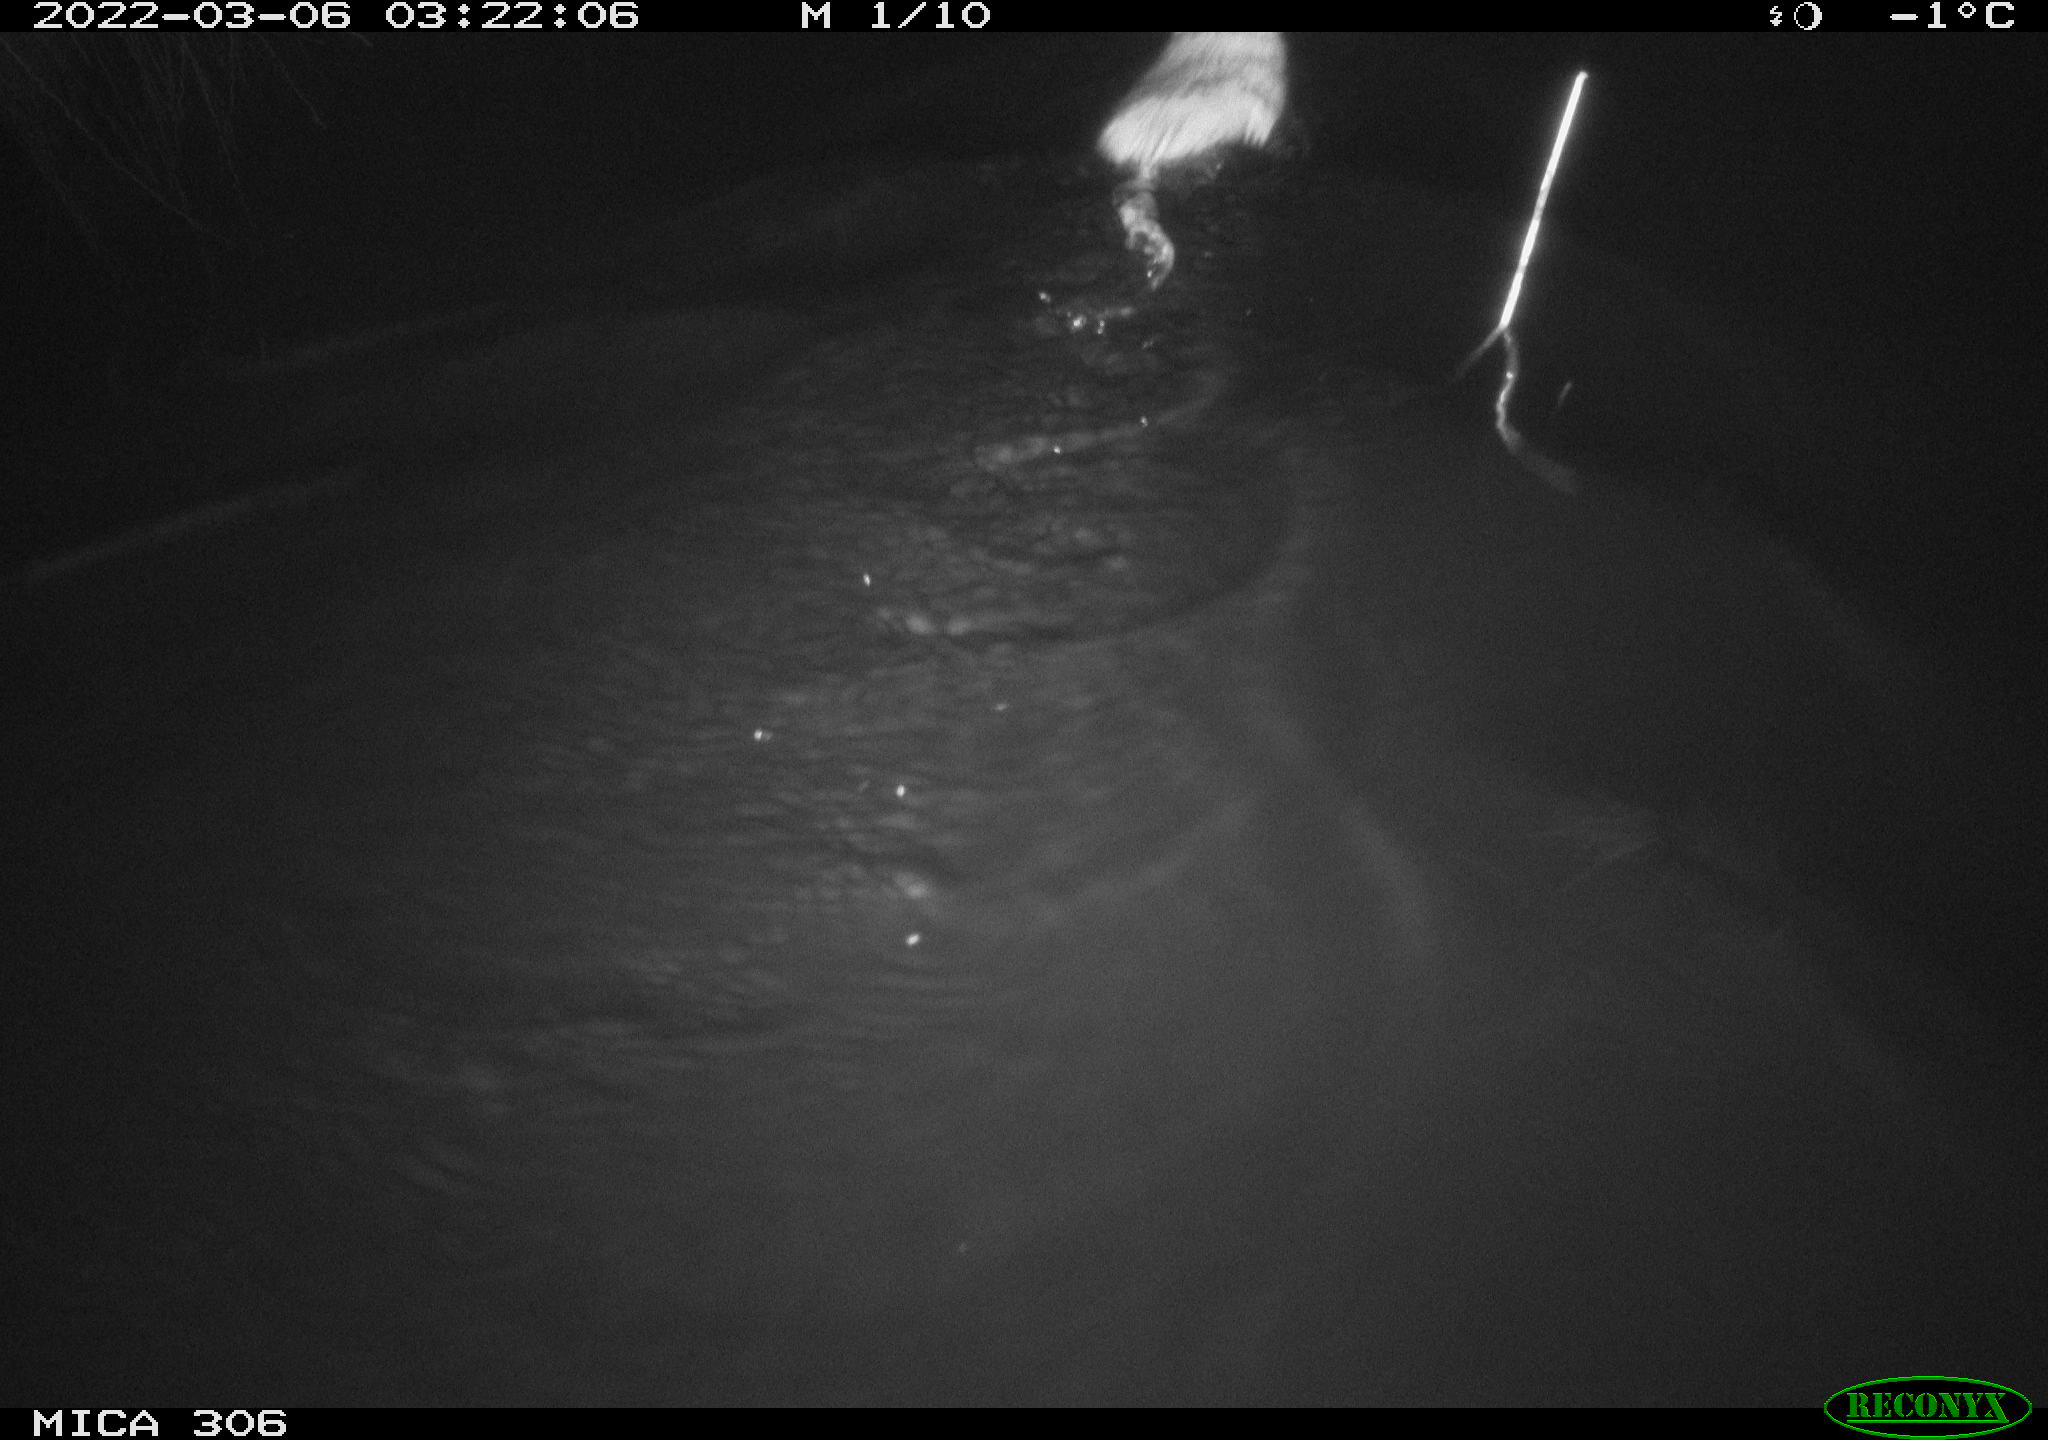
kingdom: Animalia
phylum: Chordata
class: Mammalia
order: Rodentia
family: Cricetidae
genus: Ondatra
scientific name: Ondatra zibethicus
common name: Muskrat
